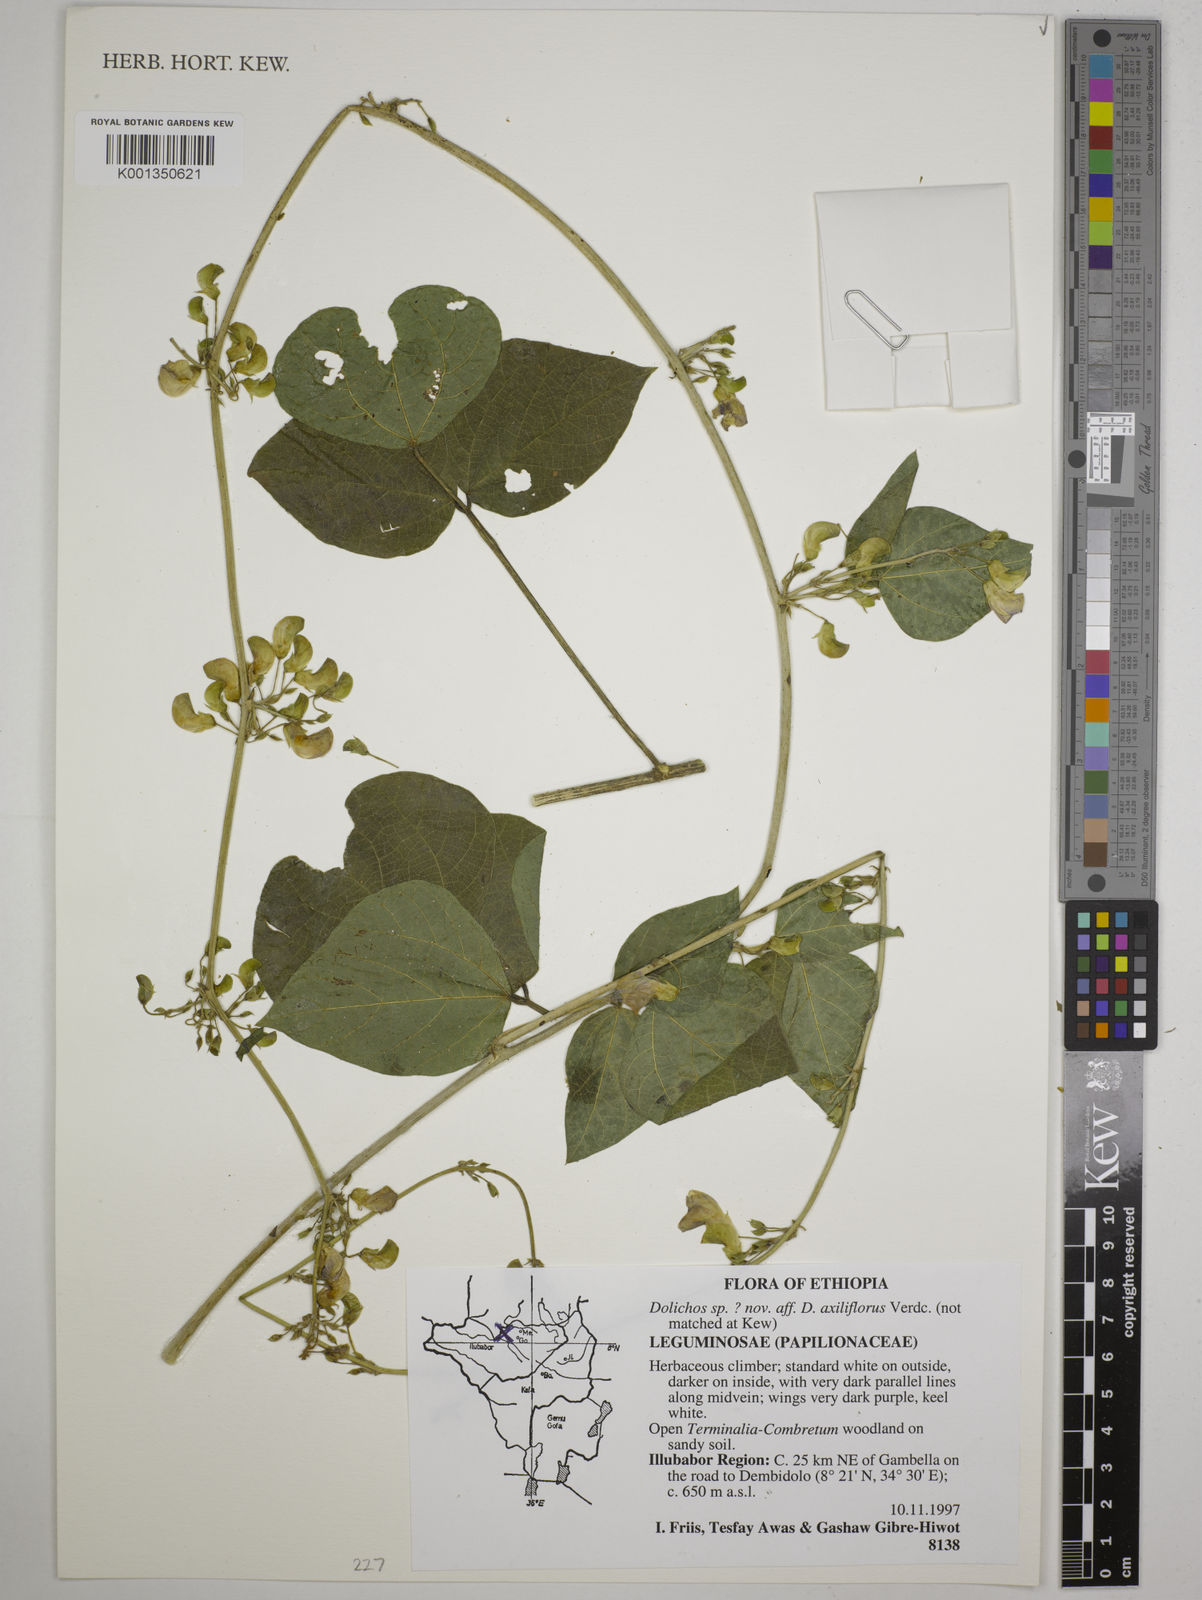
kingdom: Plantae
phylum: Tracheophyta
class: Magnoliopsida
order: Fabales
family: Fabaceae
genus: Dolichos
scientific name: Dolichos
